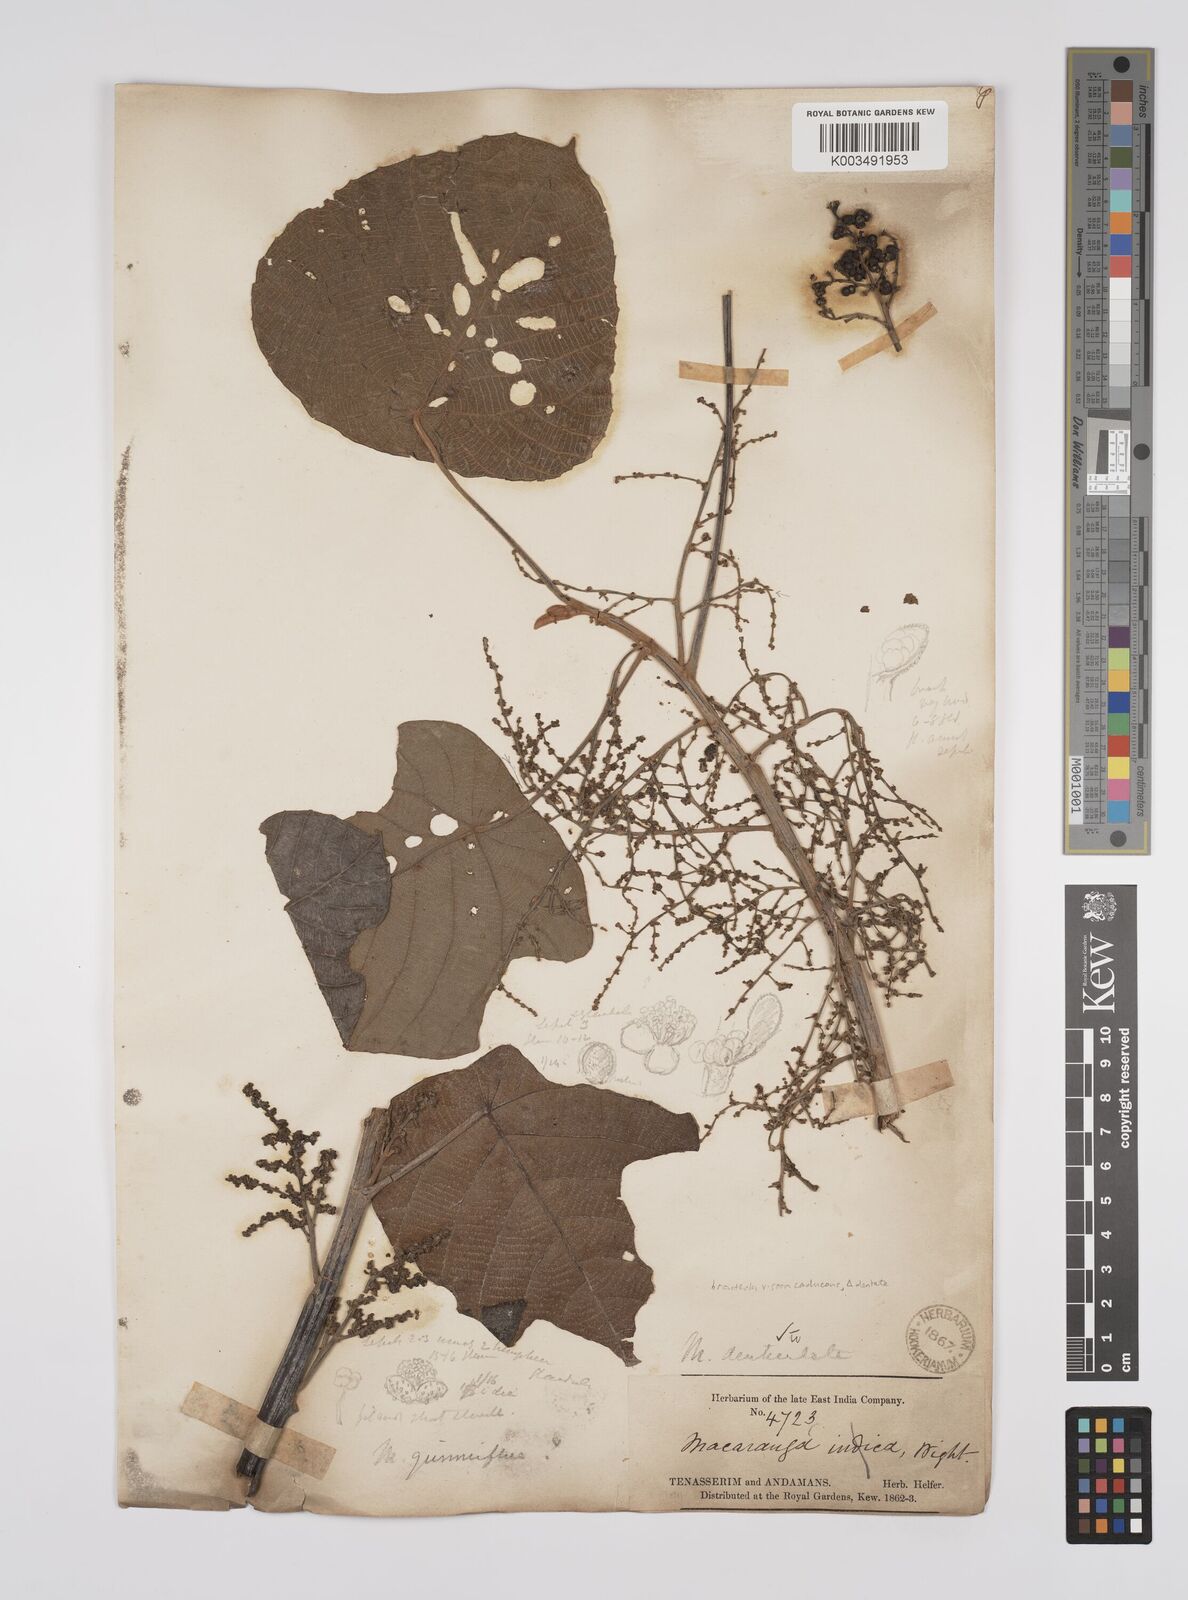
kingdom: Plantae
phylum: Tracheophyta
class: Magnoliopsida
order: Malpighiales
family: Euphorbiaceae
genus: Macaranga
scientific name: Macaranga denticulata
